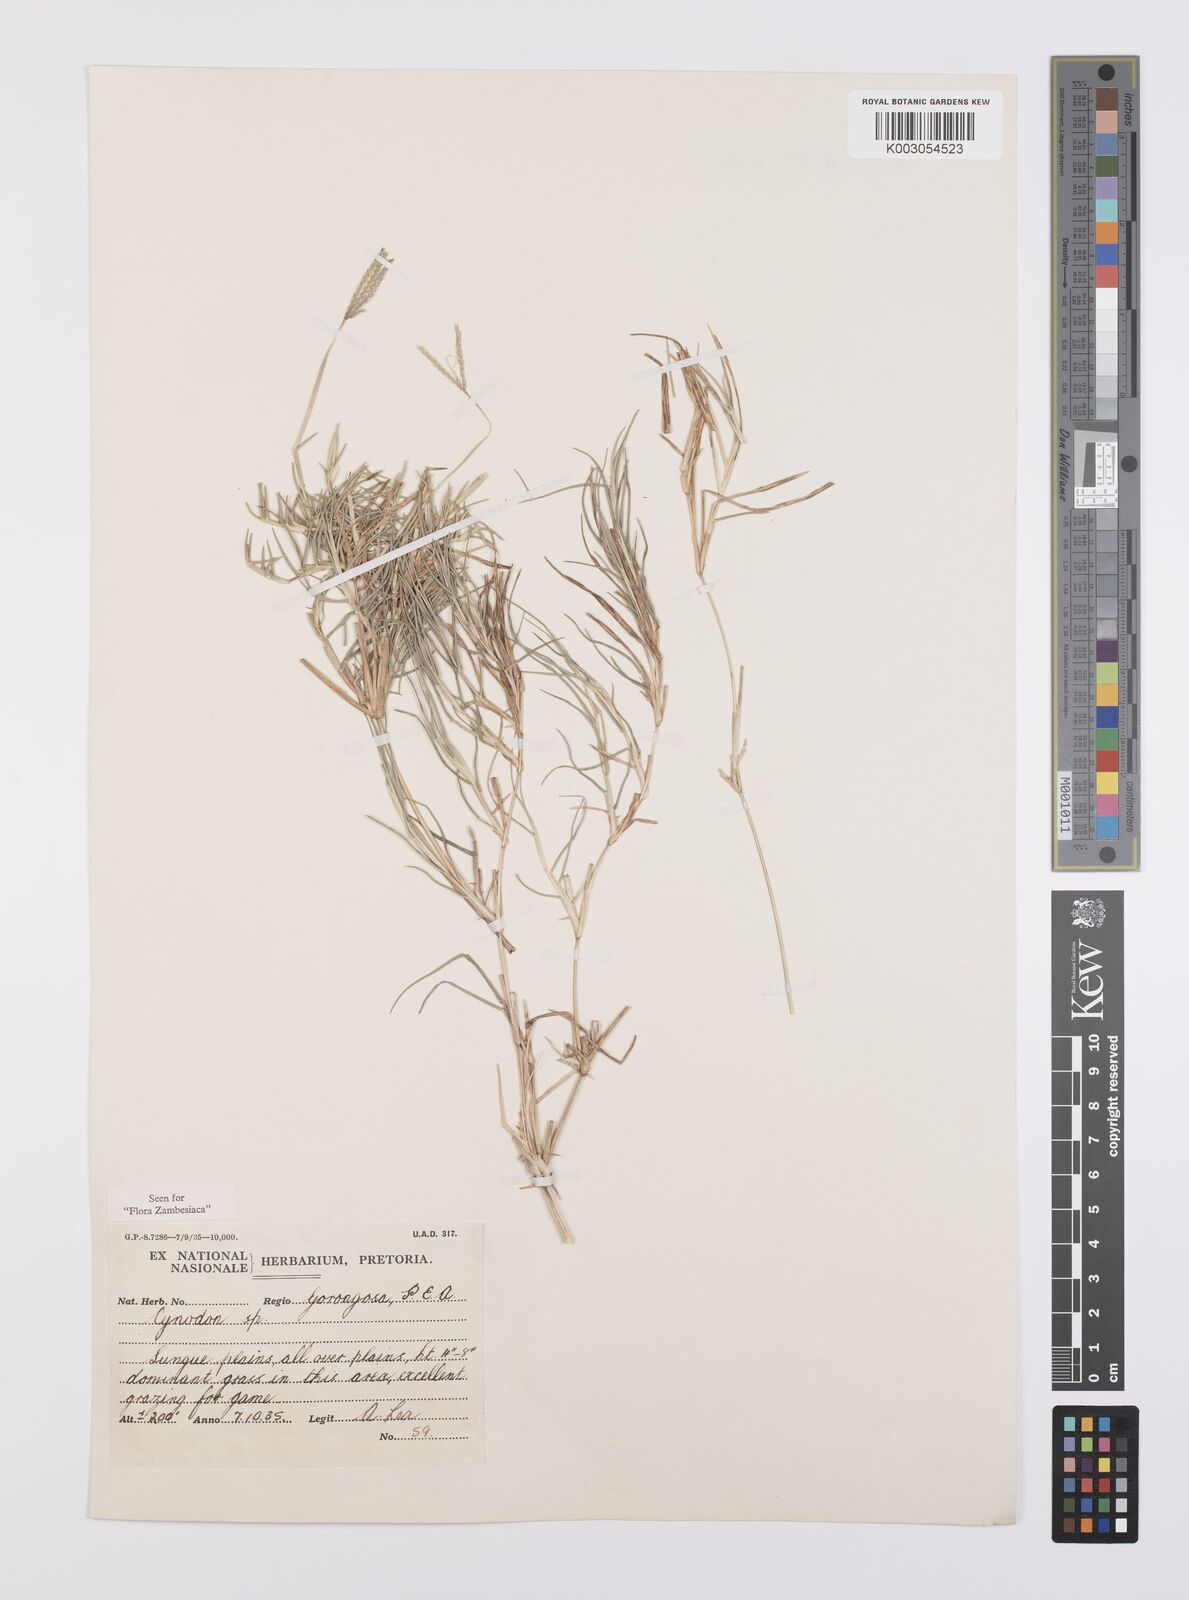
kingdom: Plantae
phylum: Tracheophyta
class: Liliopsida
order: Poales
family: Poaceae
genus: Cynodon
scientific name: Cynodon dactylon
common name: Bermuda grass
